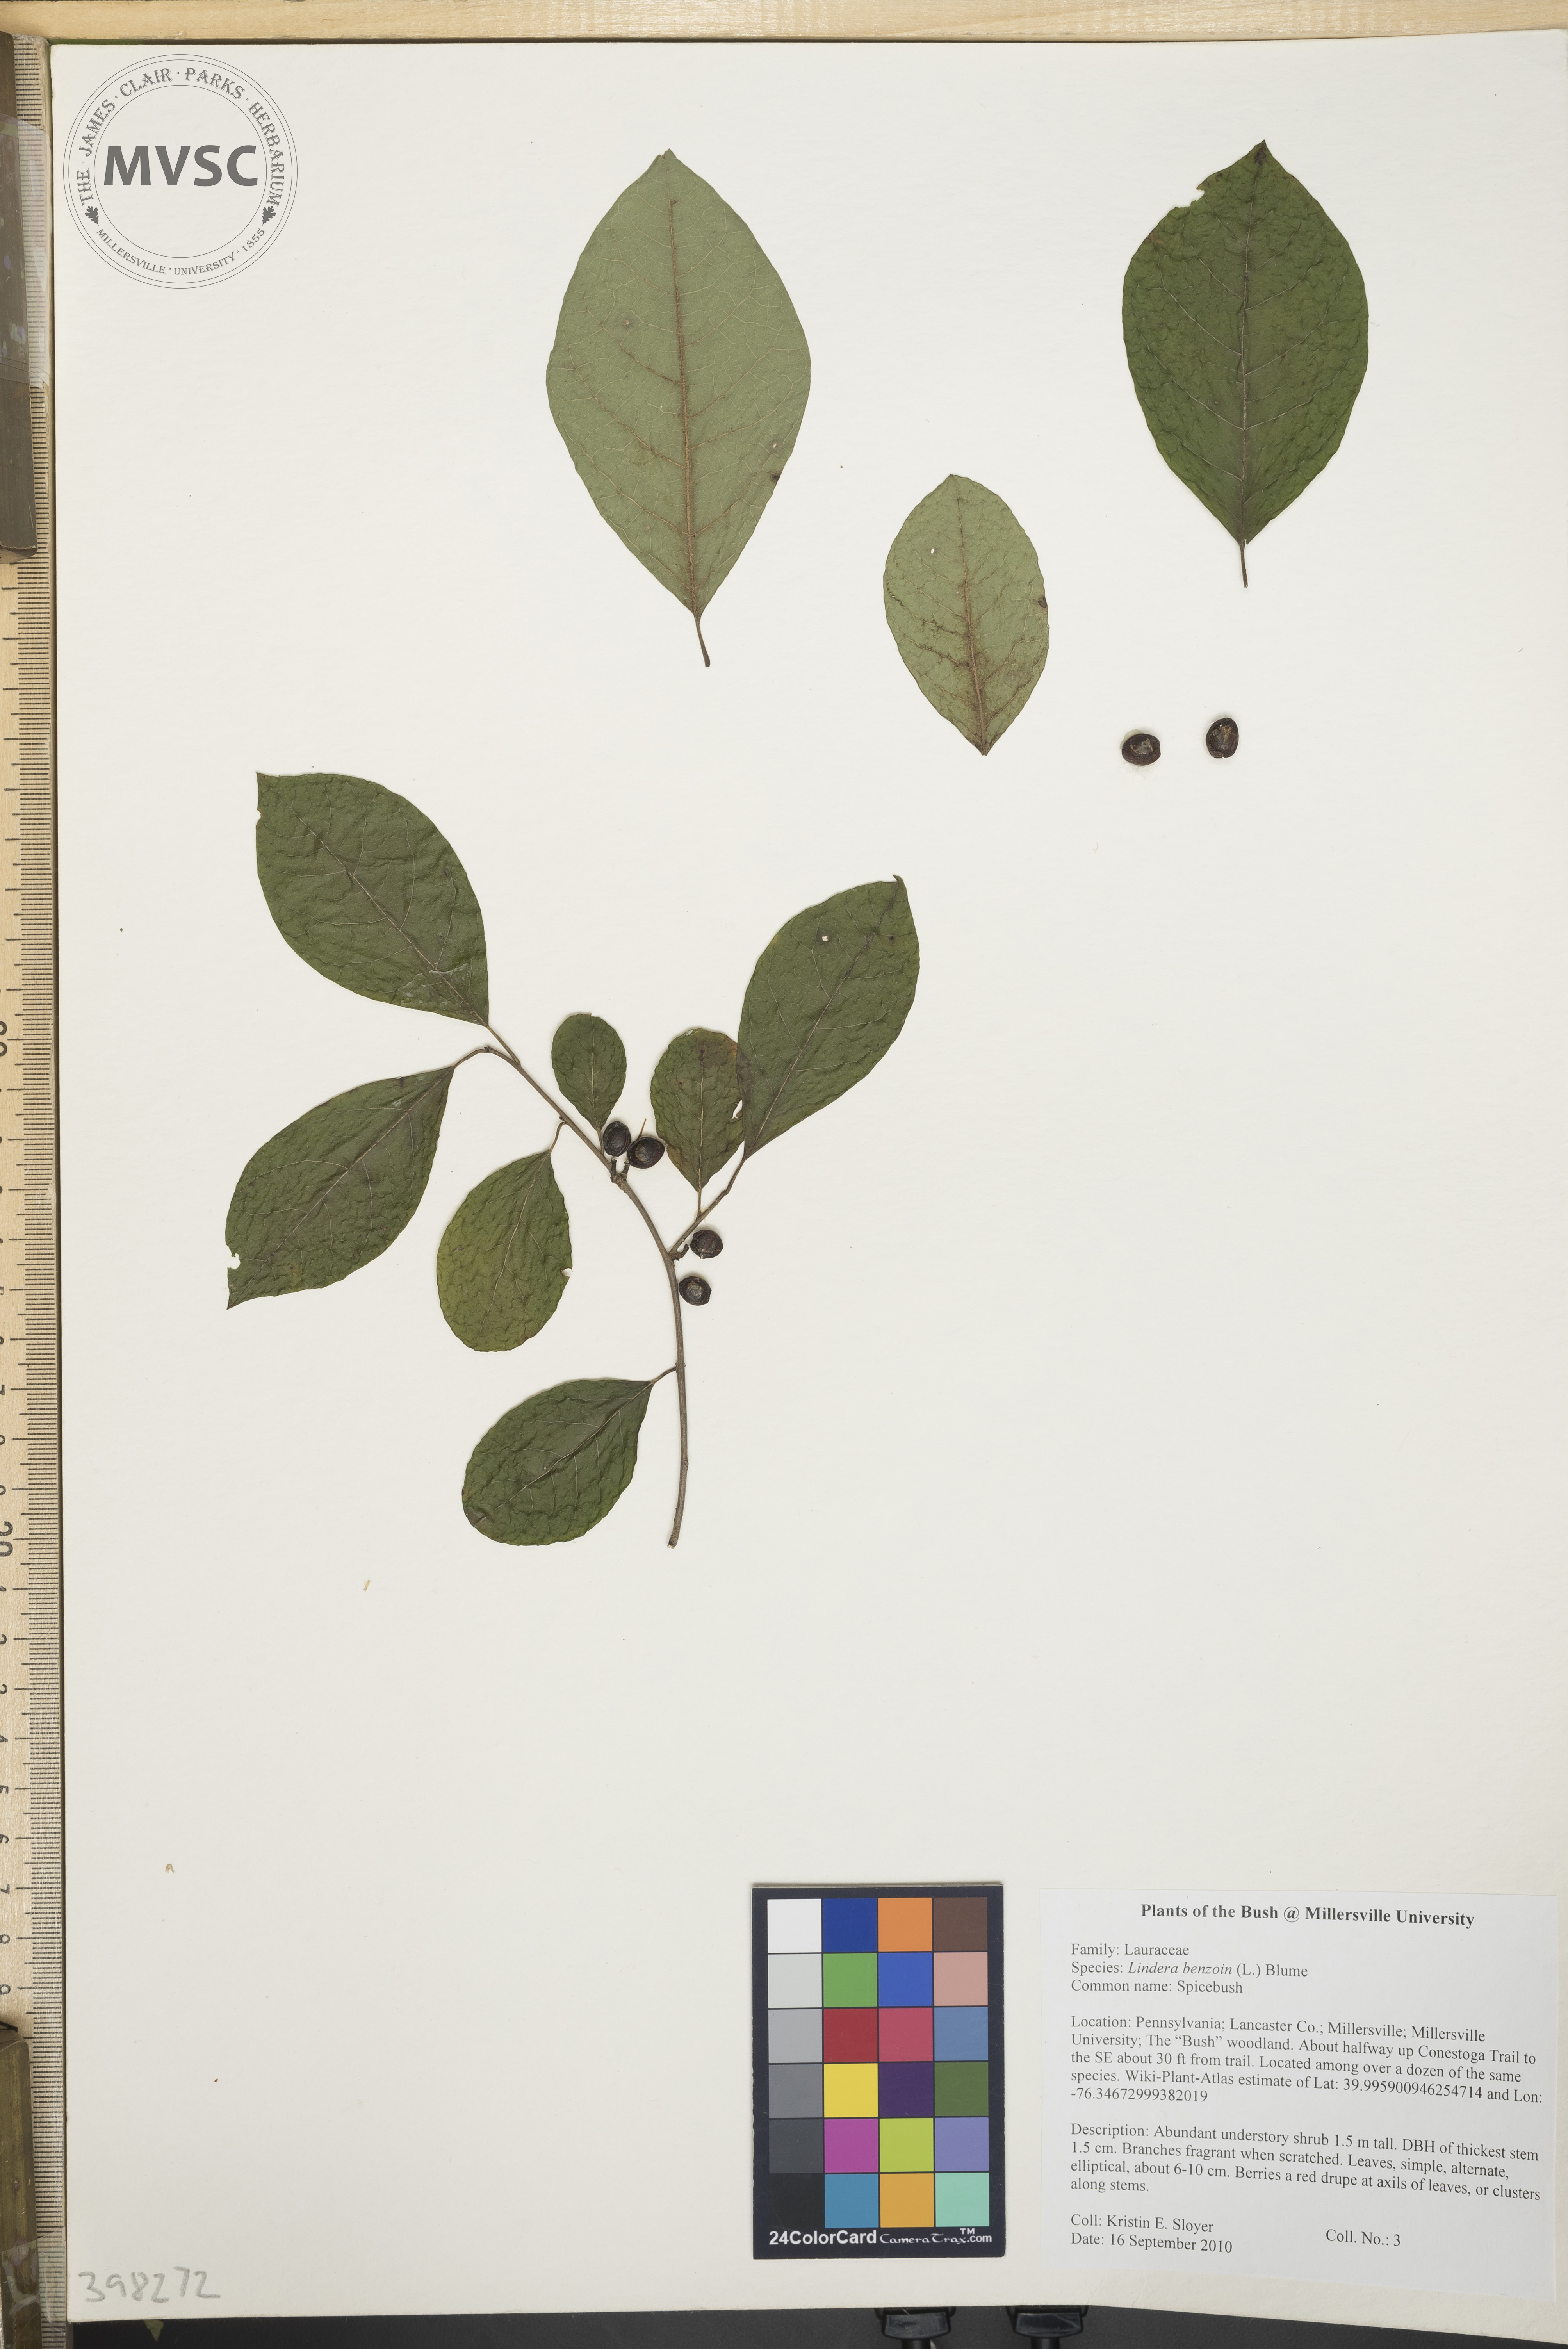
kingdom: Plantae
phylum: Tracheophyta
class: Magnoliopsida
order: Laurales
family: Lauraceae
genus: Lindera
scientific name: Lindera benzoin
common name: Spicebush
